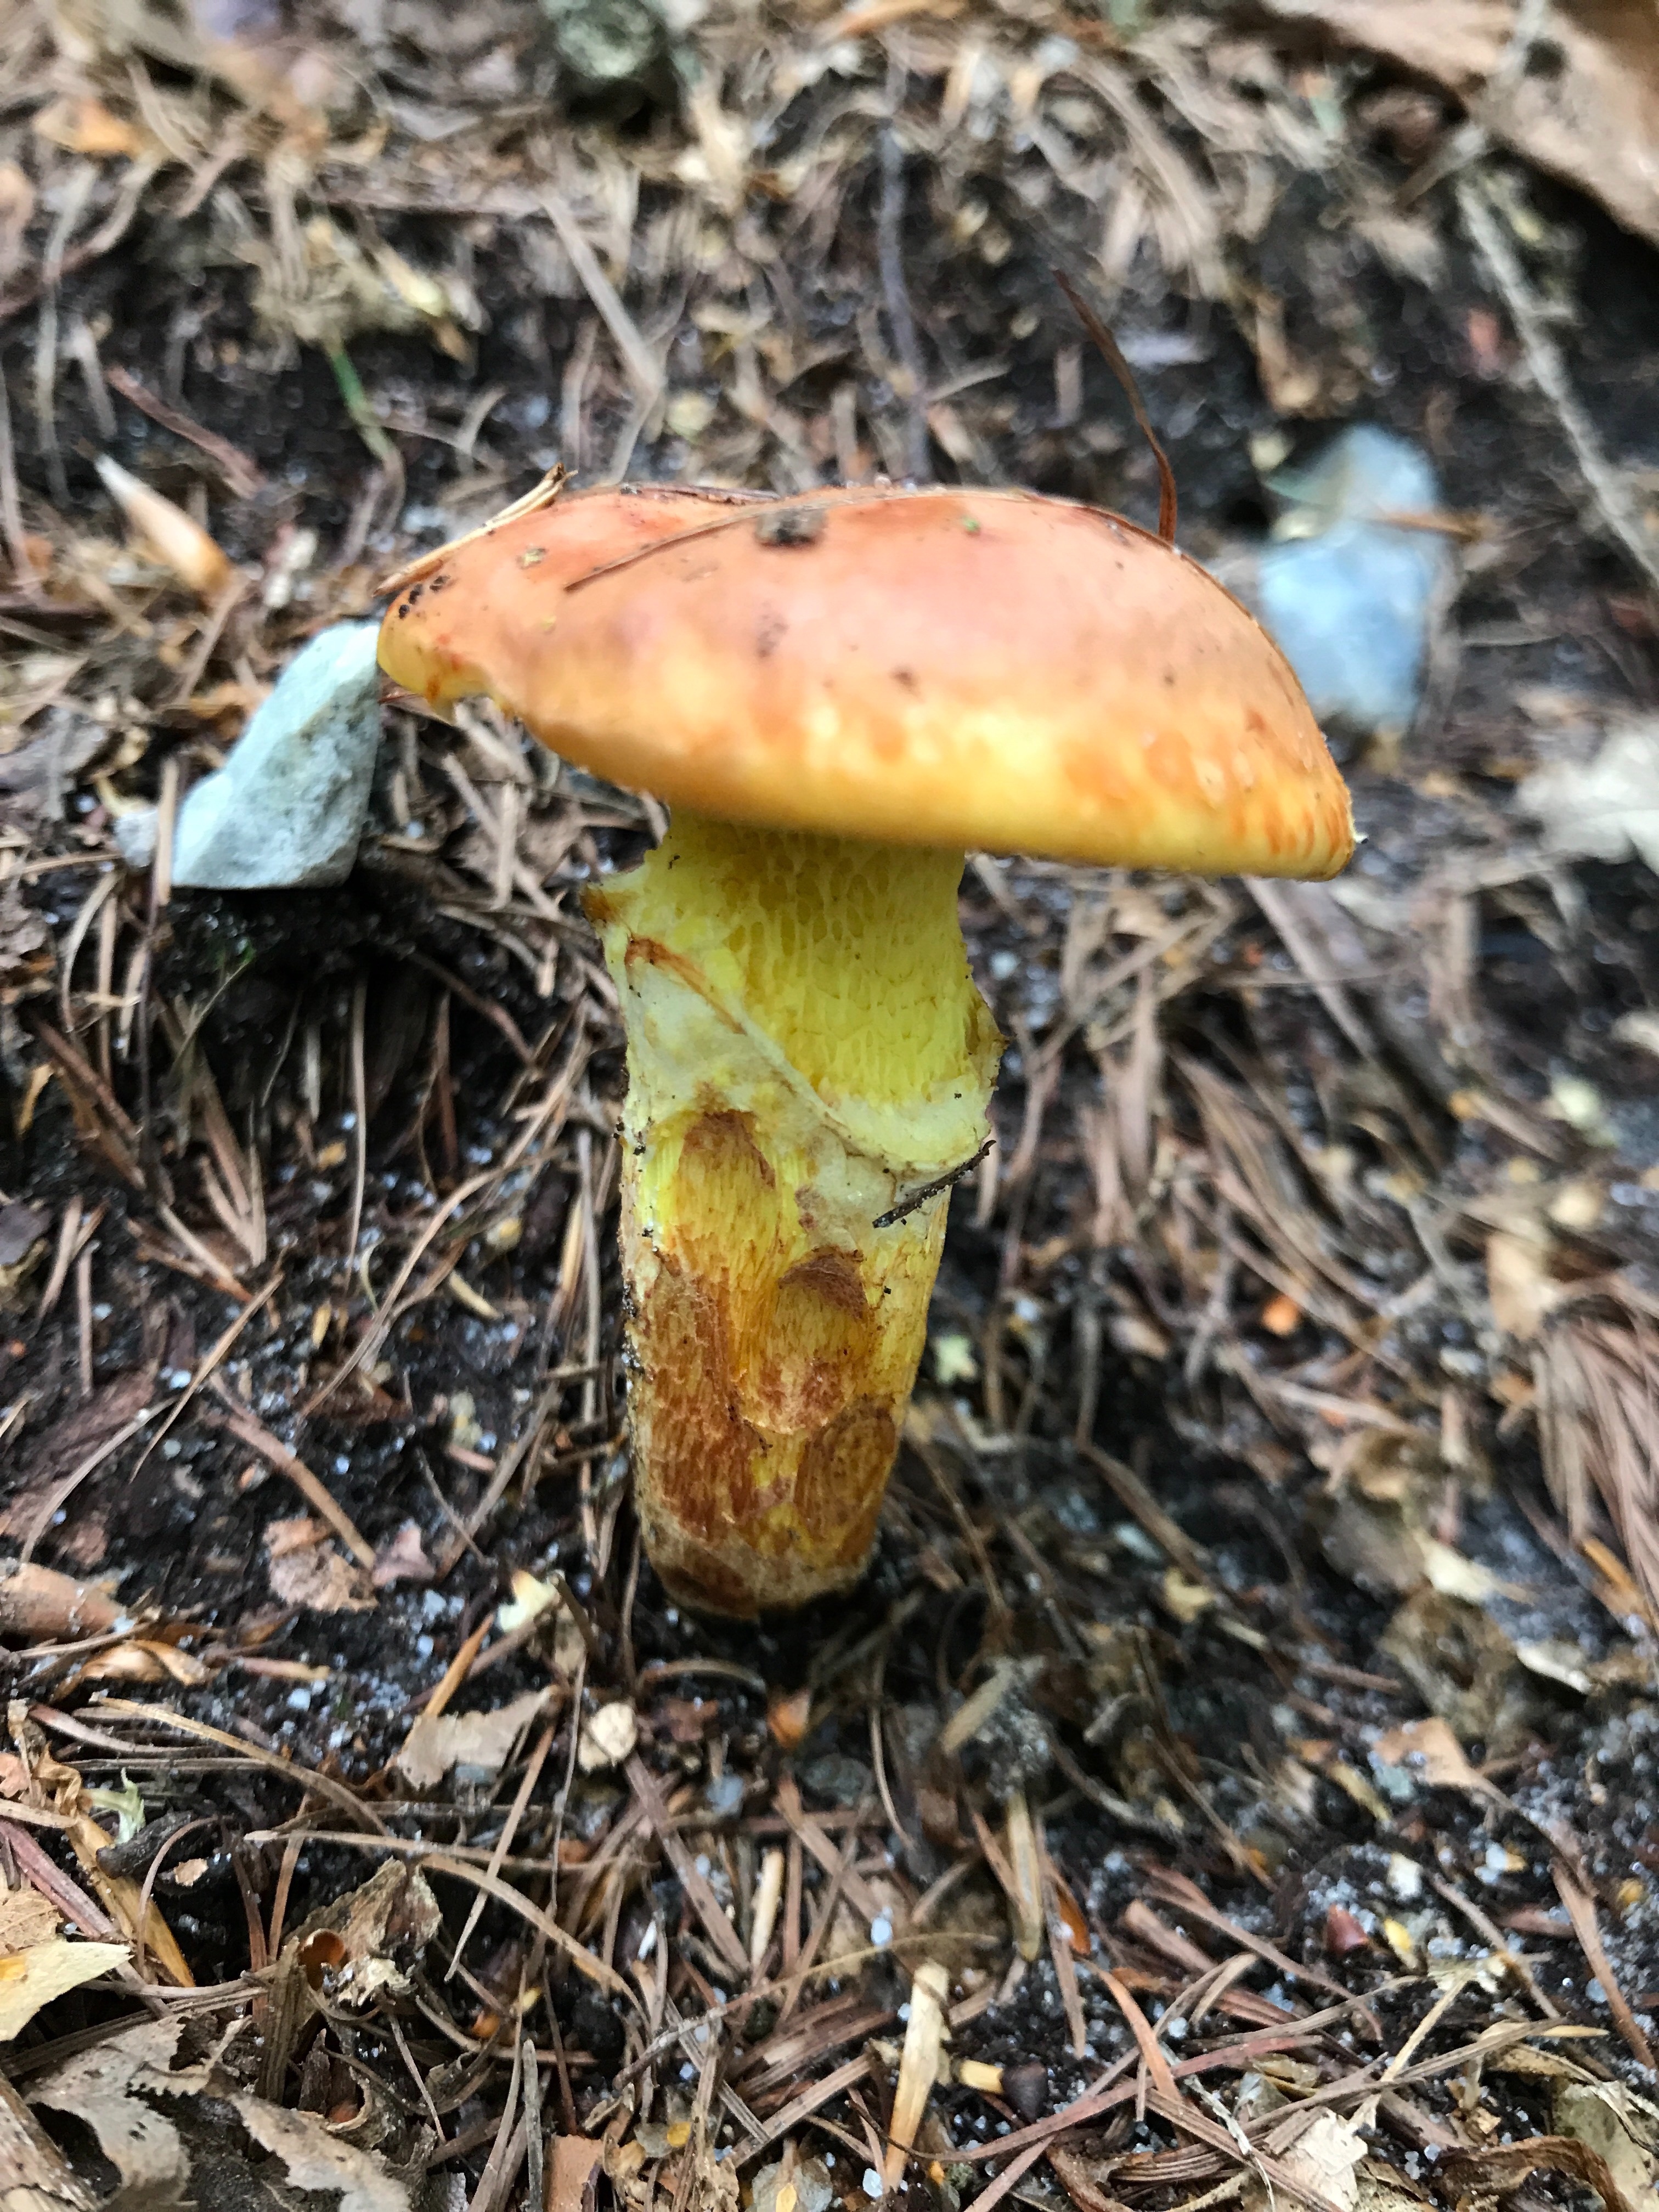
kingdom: Fungi
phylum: Basidiomycota
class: Agaricomycetes
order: Boletales
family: Suillaceae
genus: Suillus
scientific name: Suillus grevillei
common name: lærke-slimrørhat
